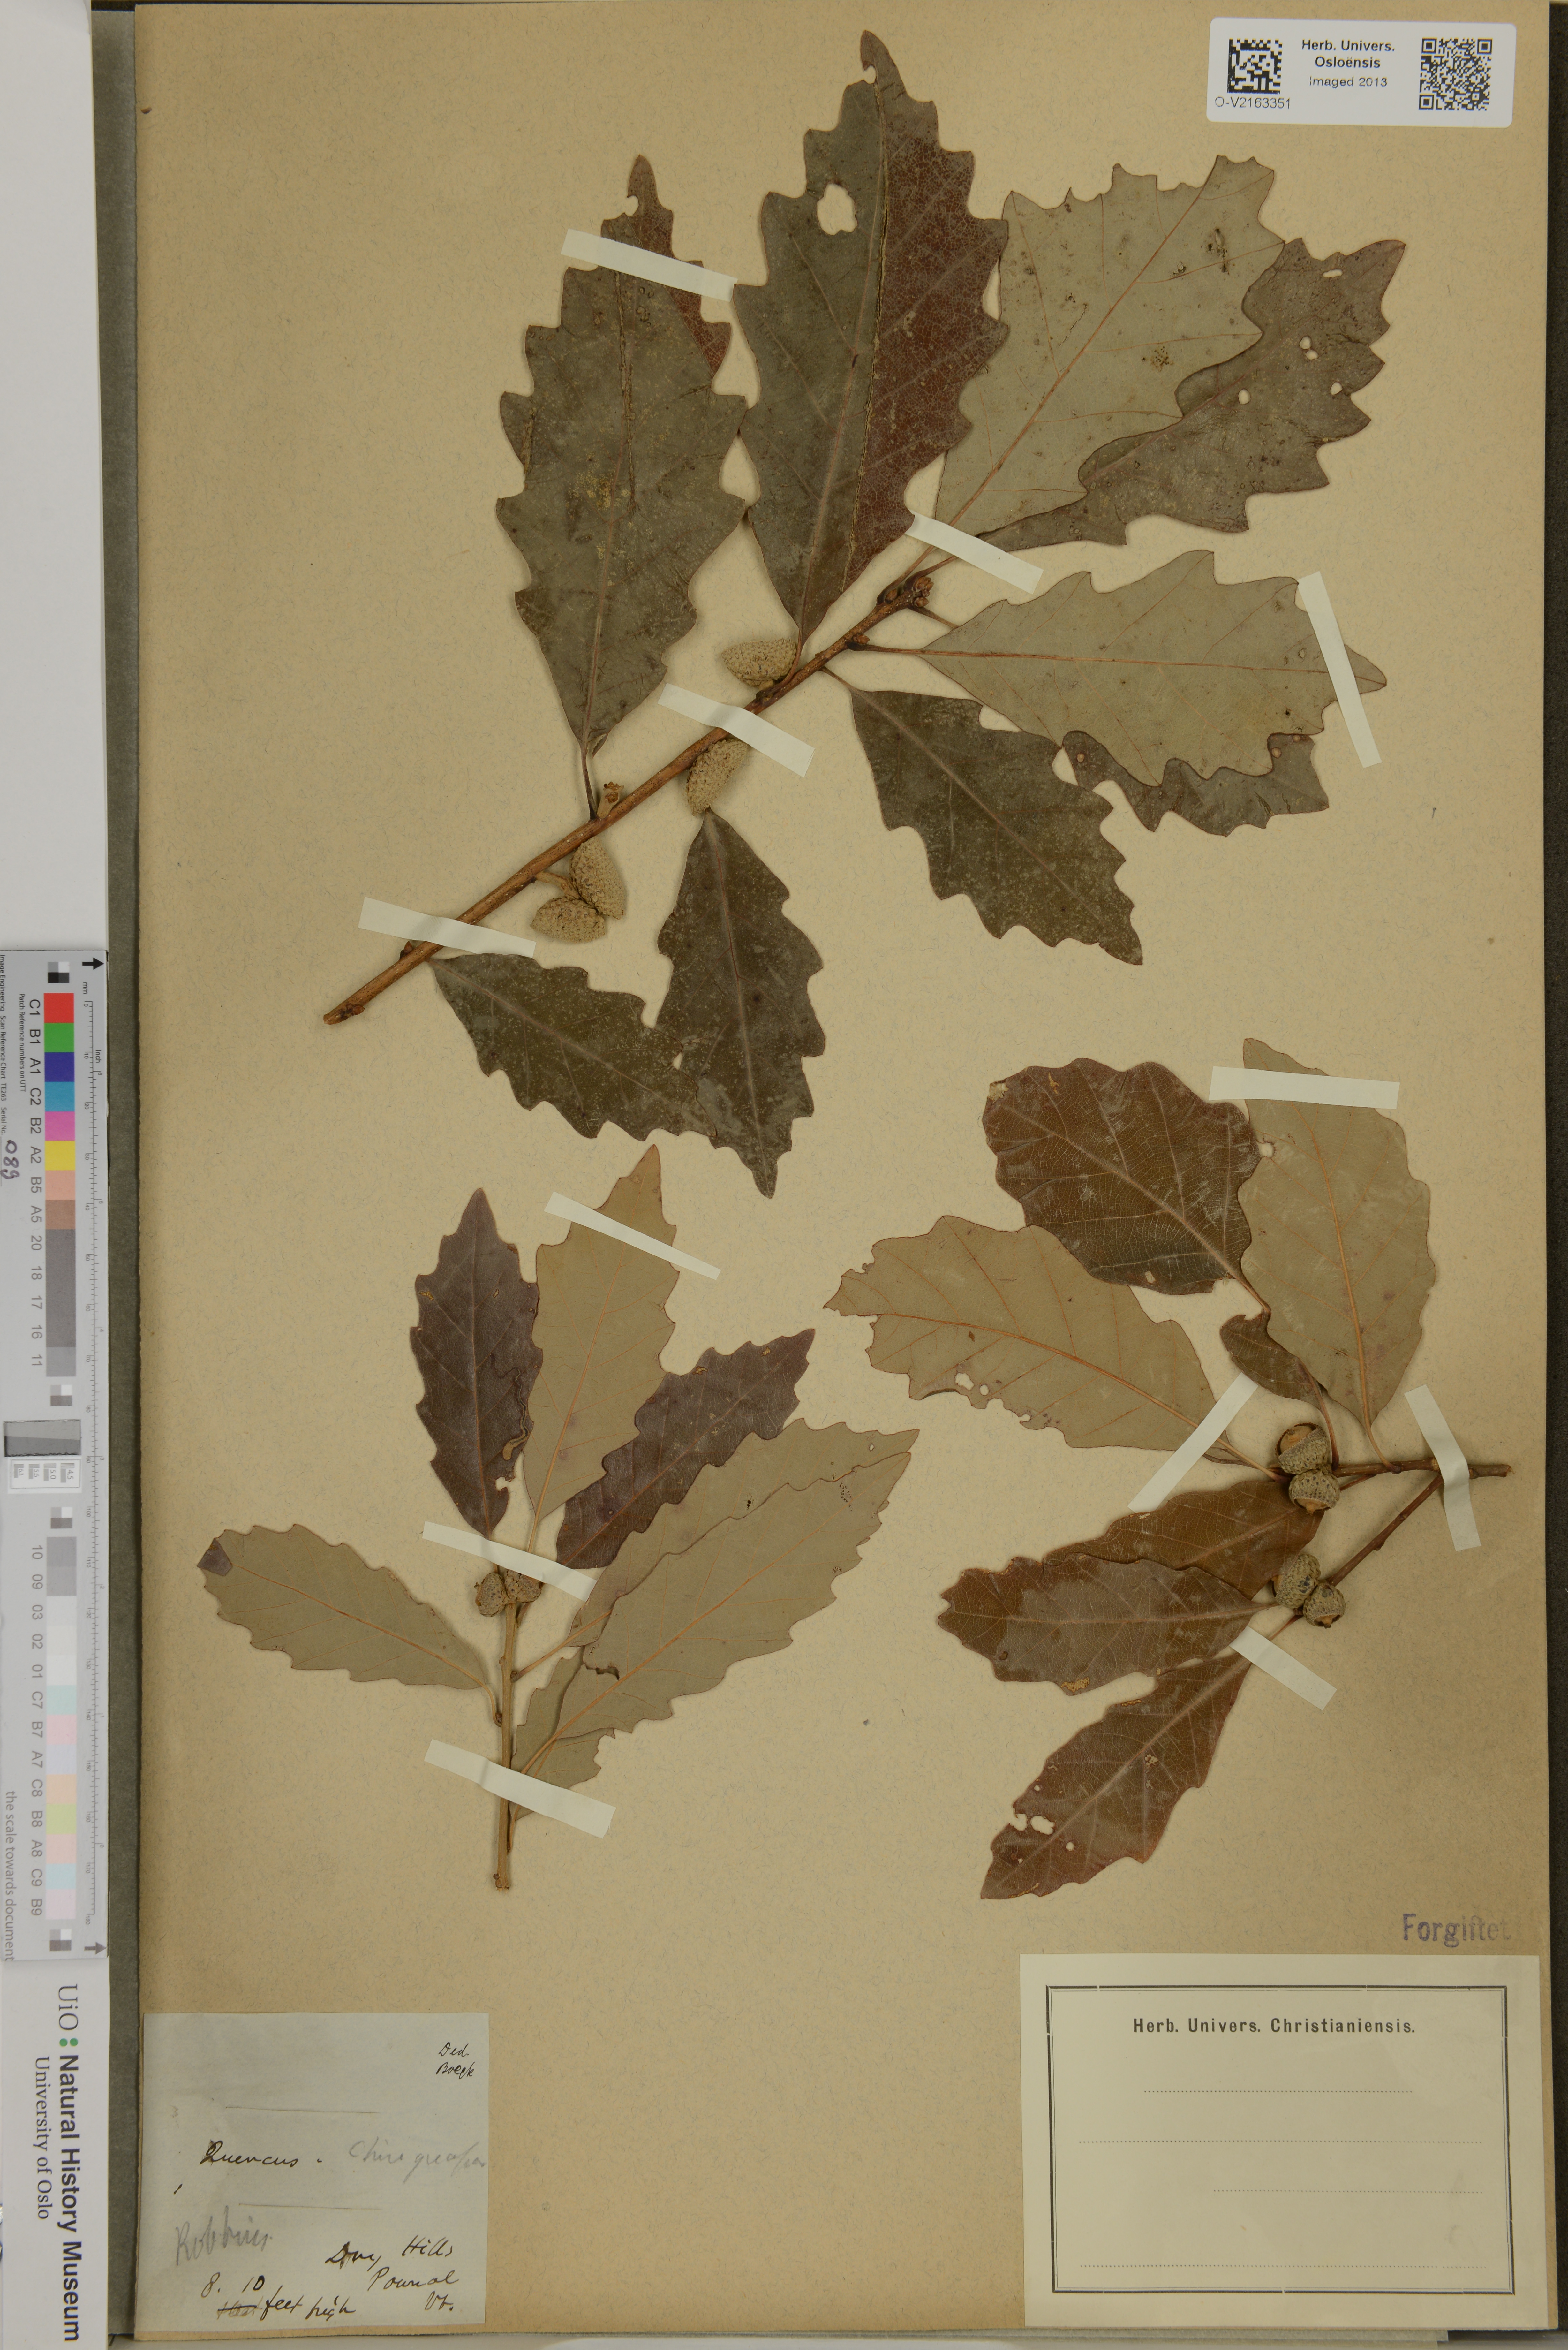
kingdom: Plantae
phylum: Tracheophyta
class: Magnoliopsida
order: Fagales
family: Fagaceae
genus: Quercus
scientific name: Quercus
